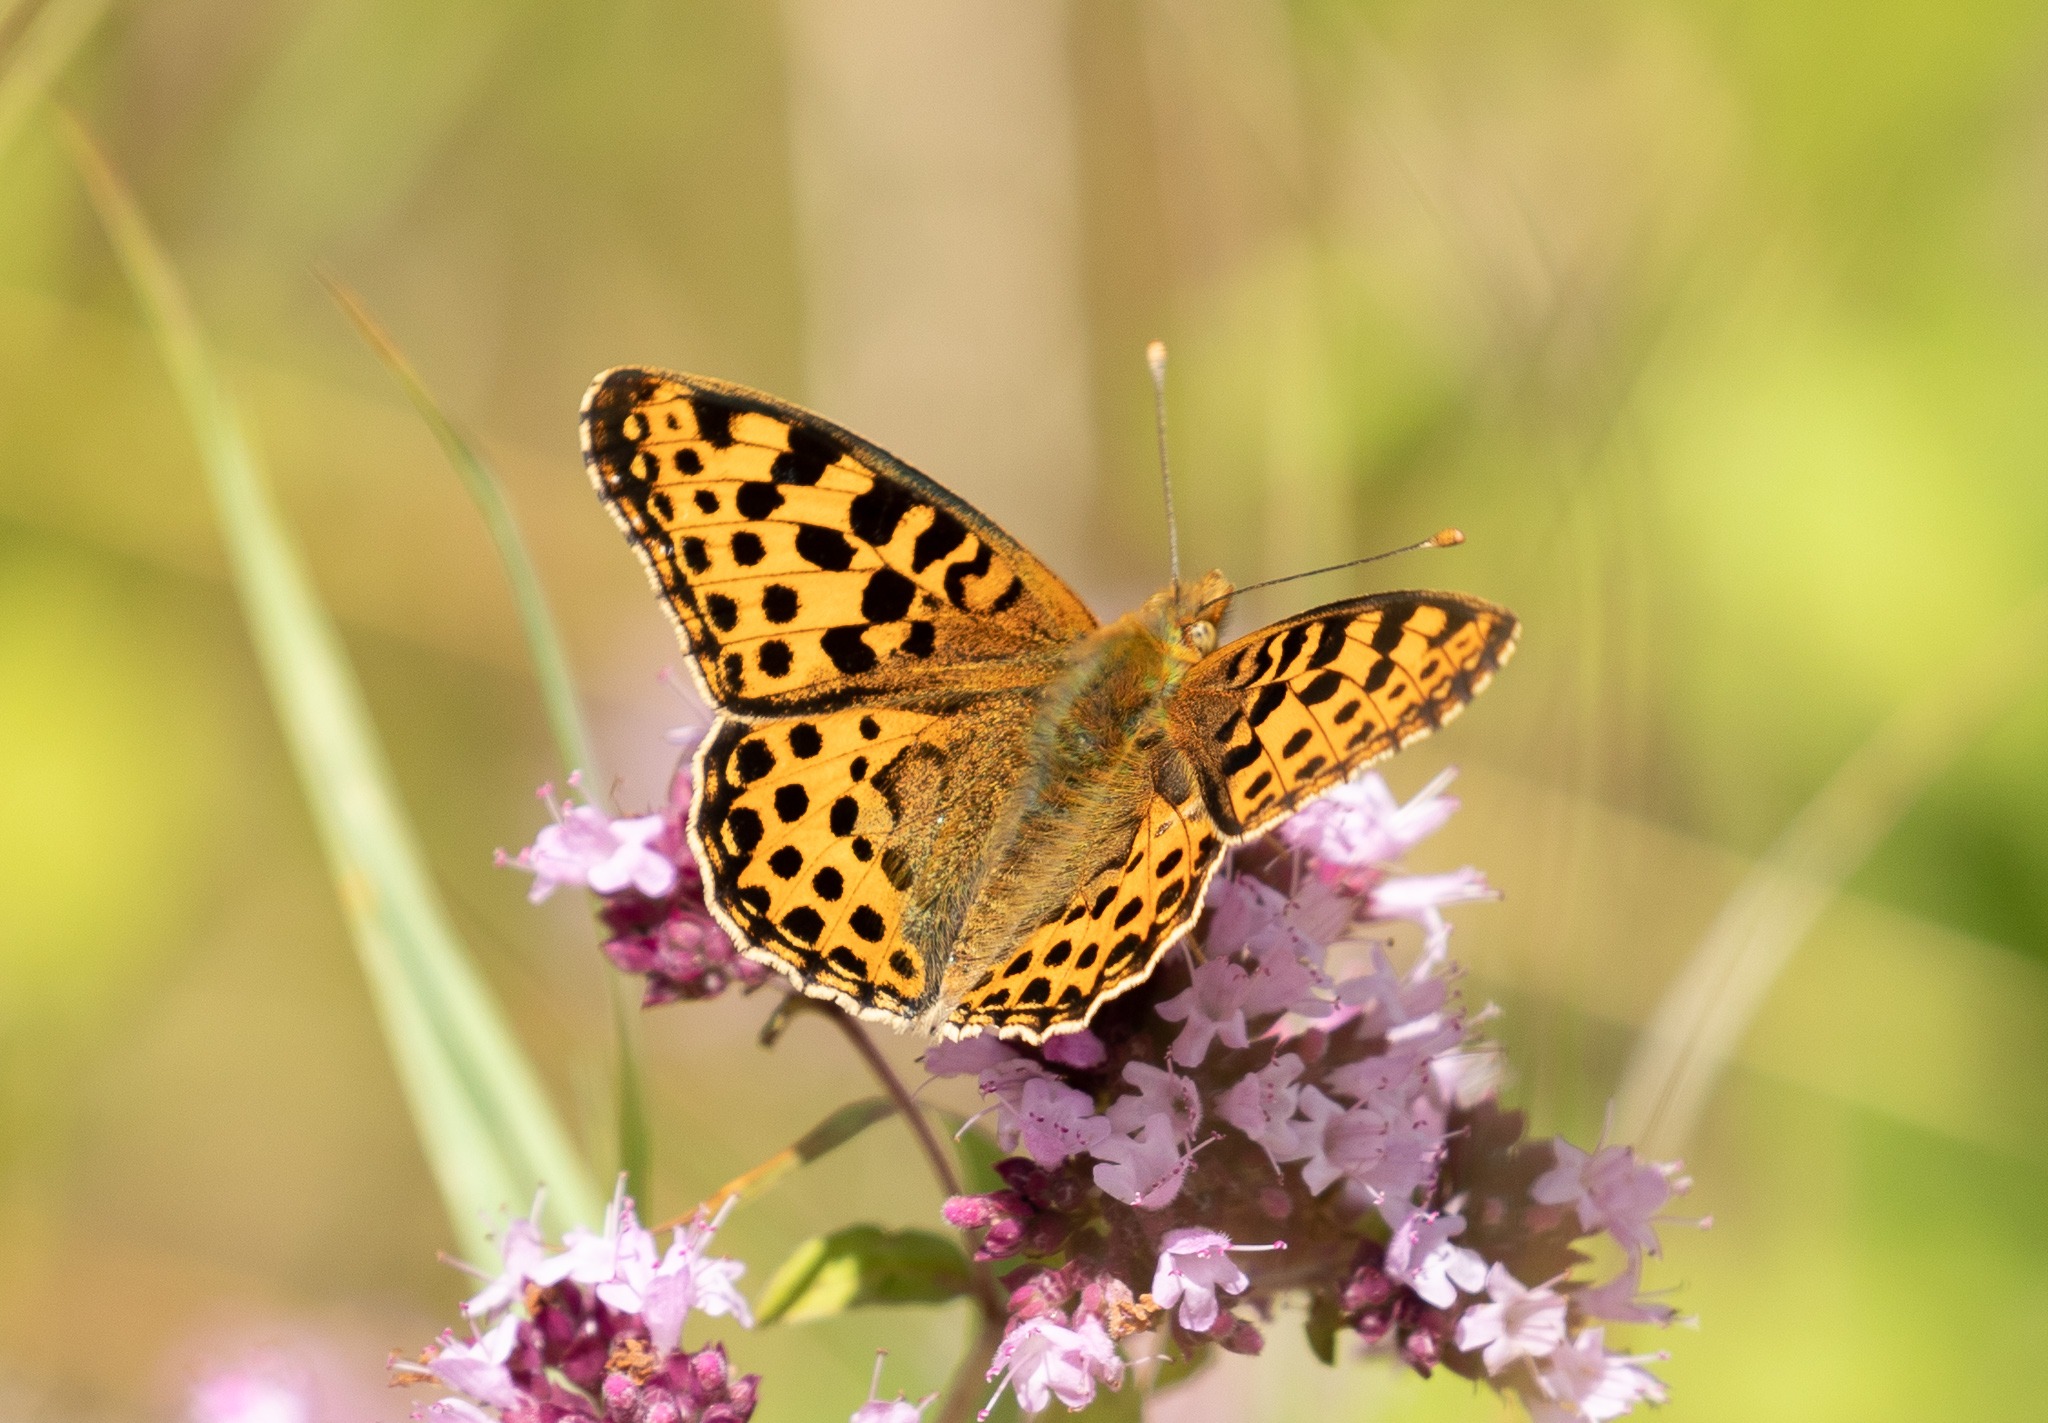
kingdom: Animalia
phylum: Arthropoda
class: Insecta
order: Lepidoptera
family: Nymphalidae
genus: Issoria
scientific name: Issoria lathonia
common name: Storplettet perlemorsommerfugl
